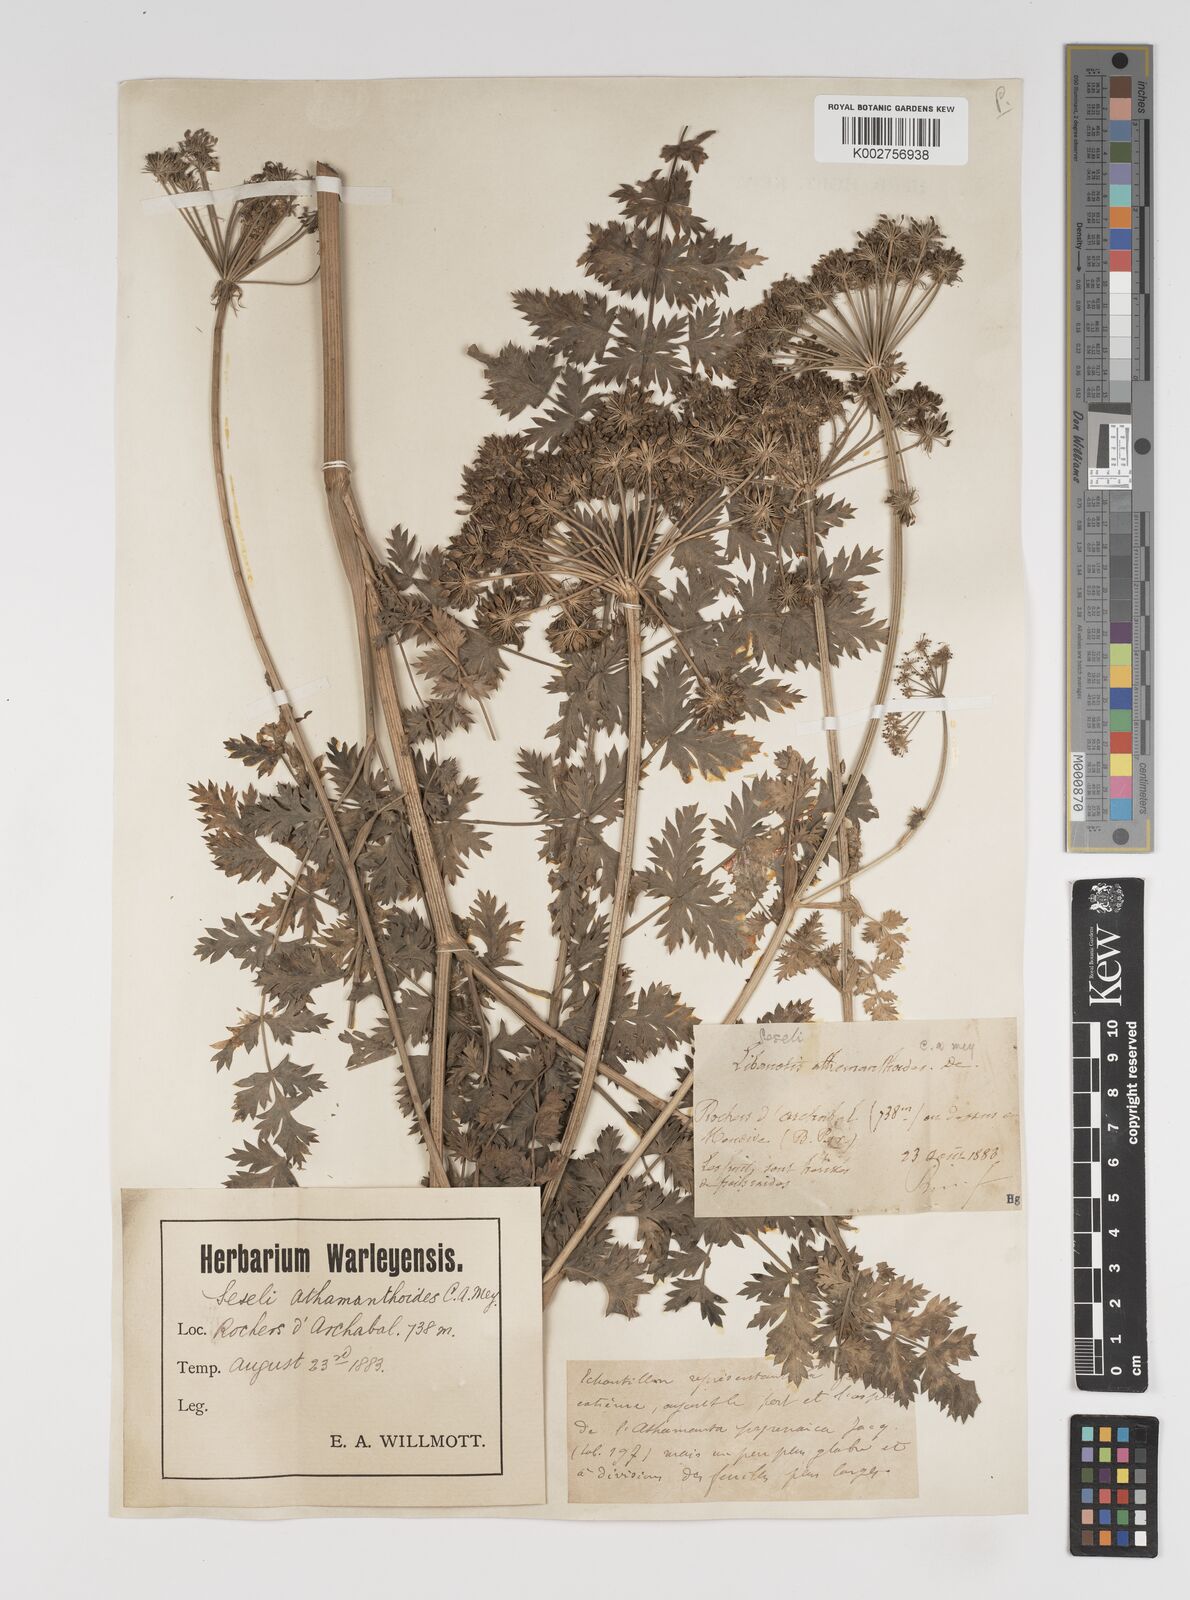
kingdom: Plantae
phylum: Tracheophyta
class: Magnoliopsida
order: Apiales
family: Apiaceae
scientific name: Apiaceae
